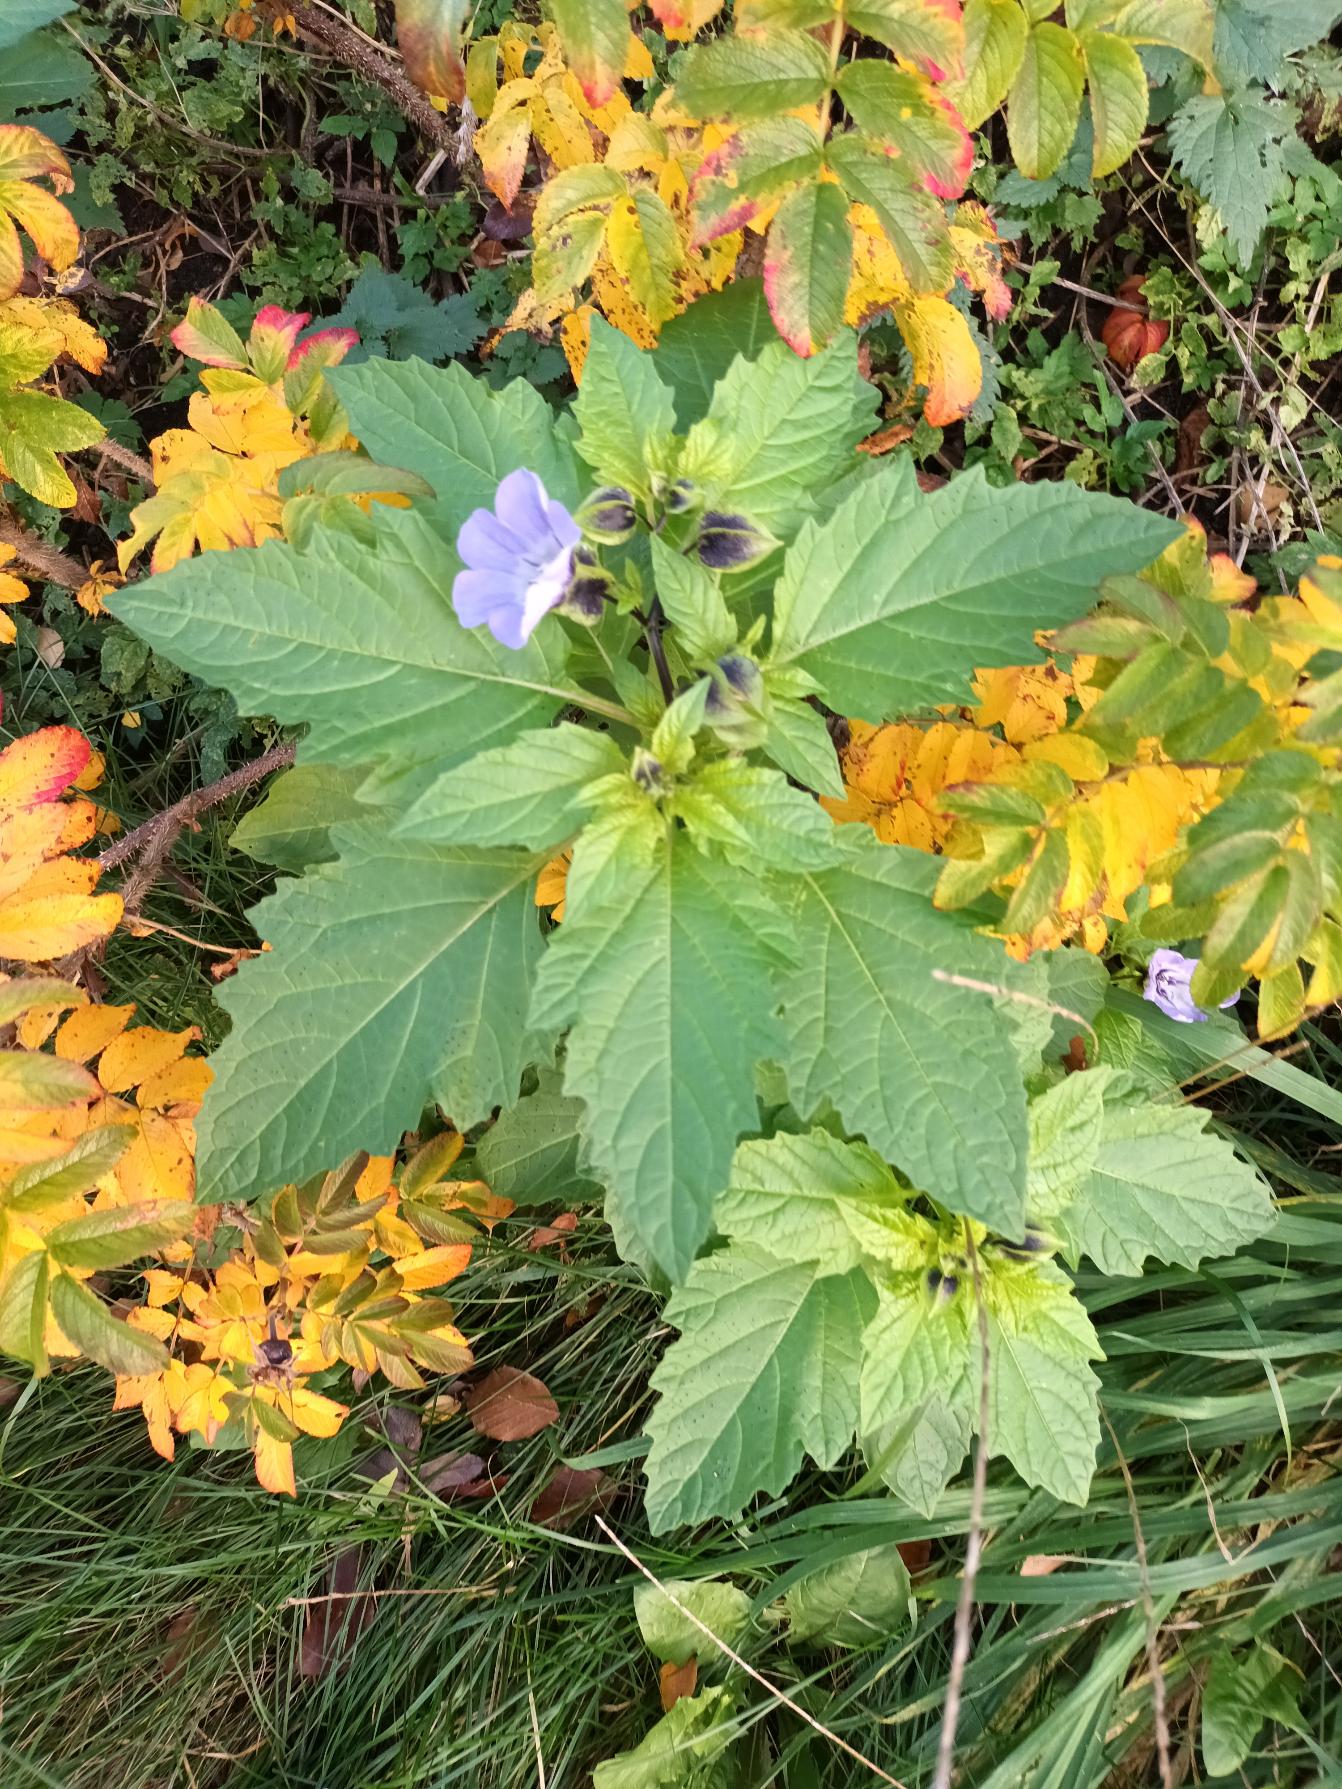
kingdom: Plantae
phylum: Tracheophyta
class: Magnoliopsida
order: Solanales
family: Solanaceae
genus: Nicandra
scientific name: Nicandra physalodes
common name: Kantbæger
